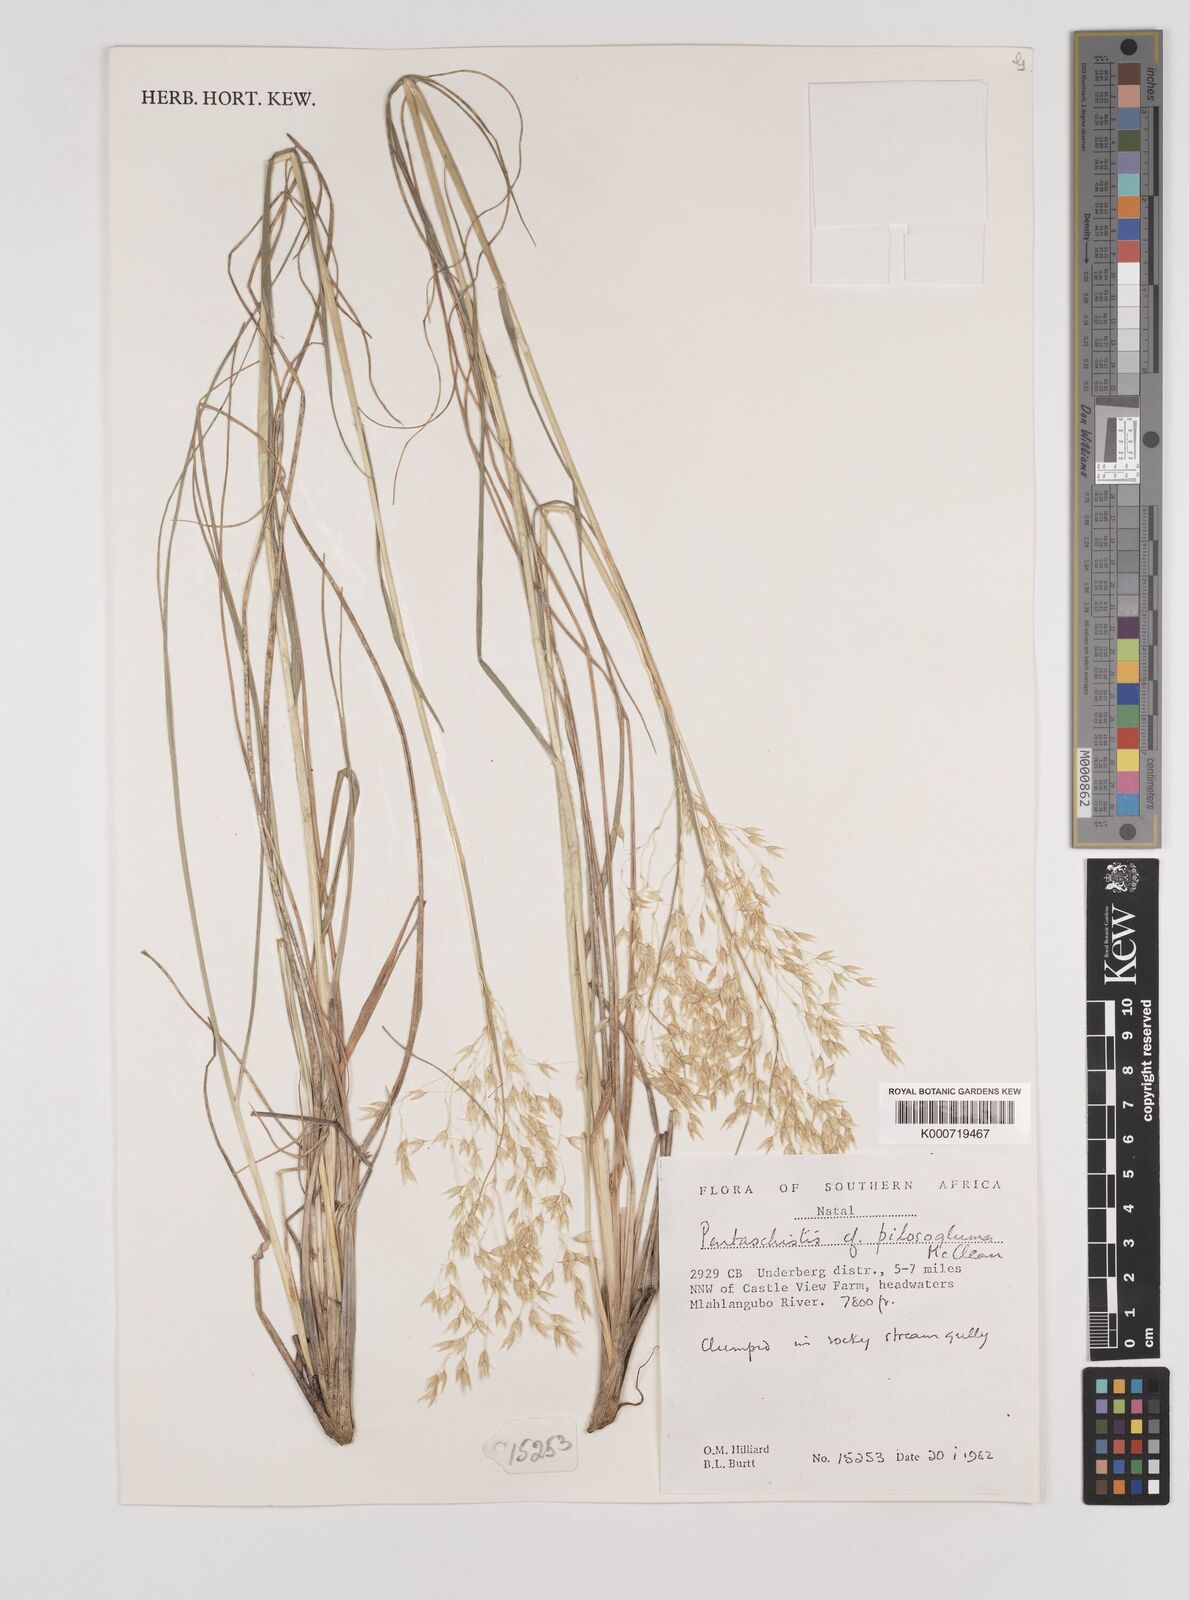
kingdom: Plantae
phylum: Tracheophyta
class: Liliopsida
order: Poales
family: Poaceae
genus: Pentameris
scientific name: Pentameris aurea
